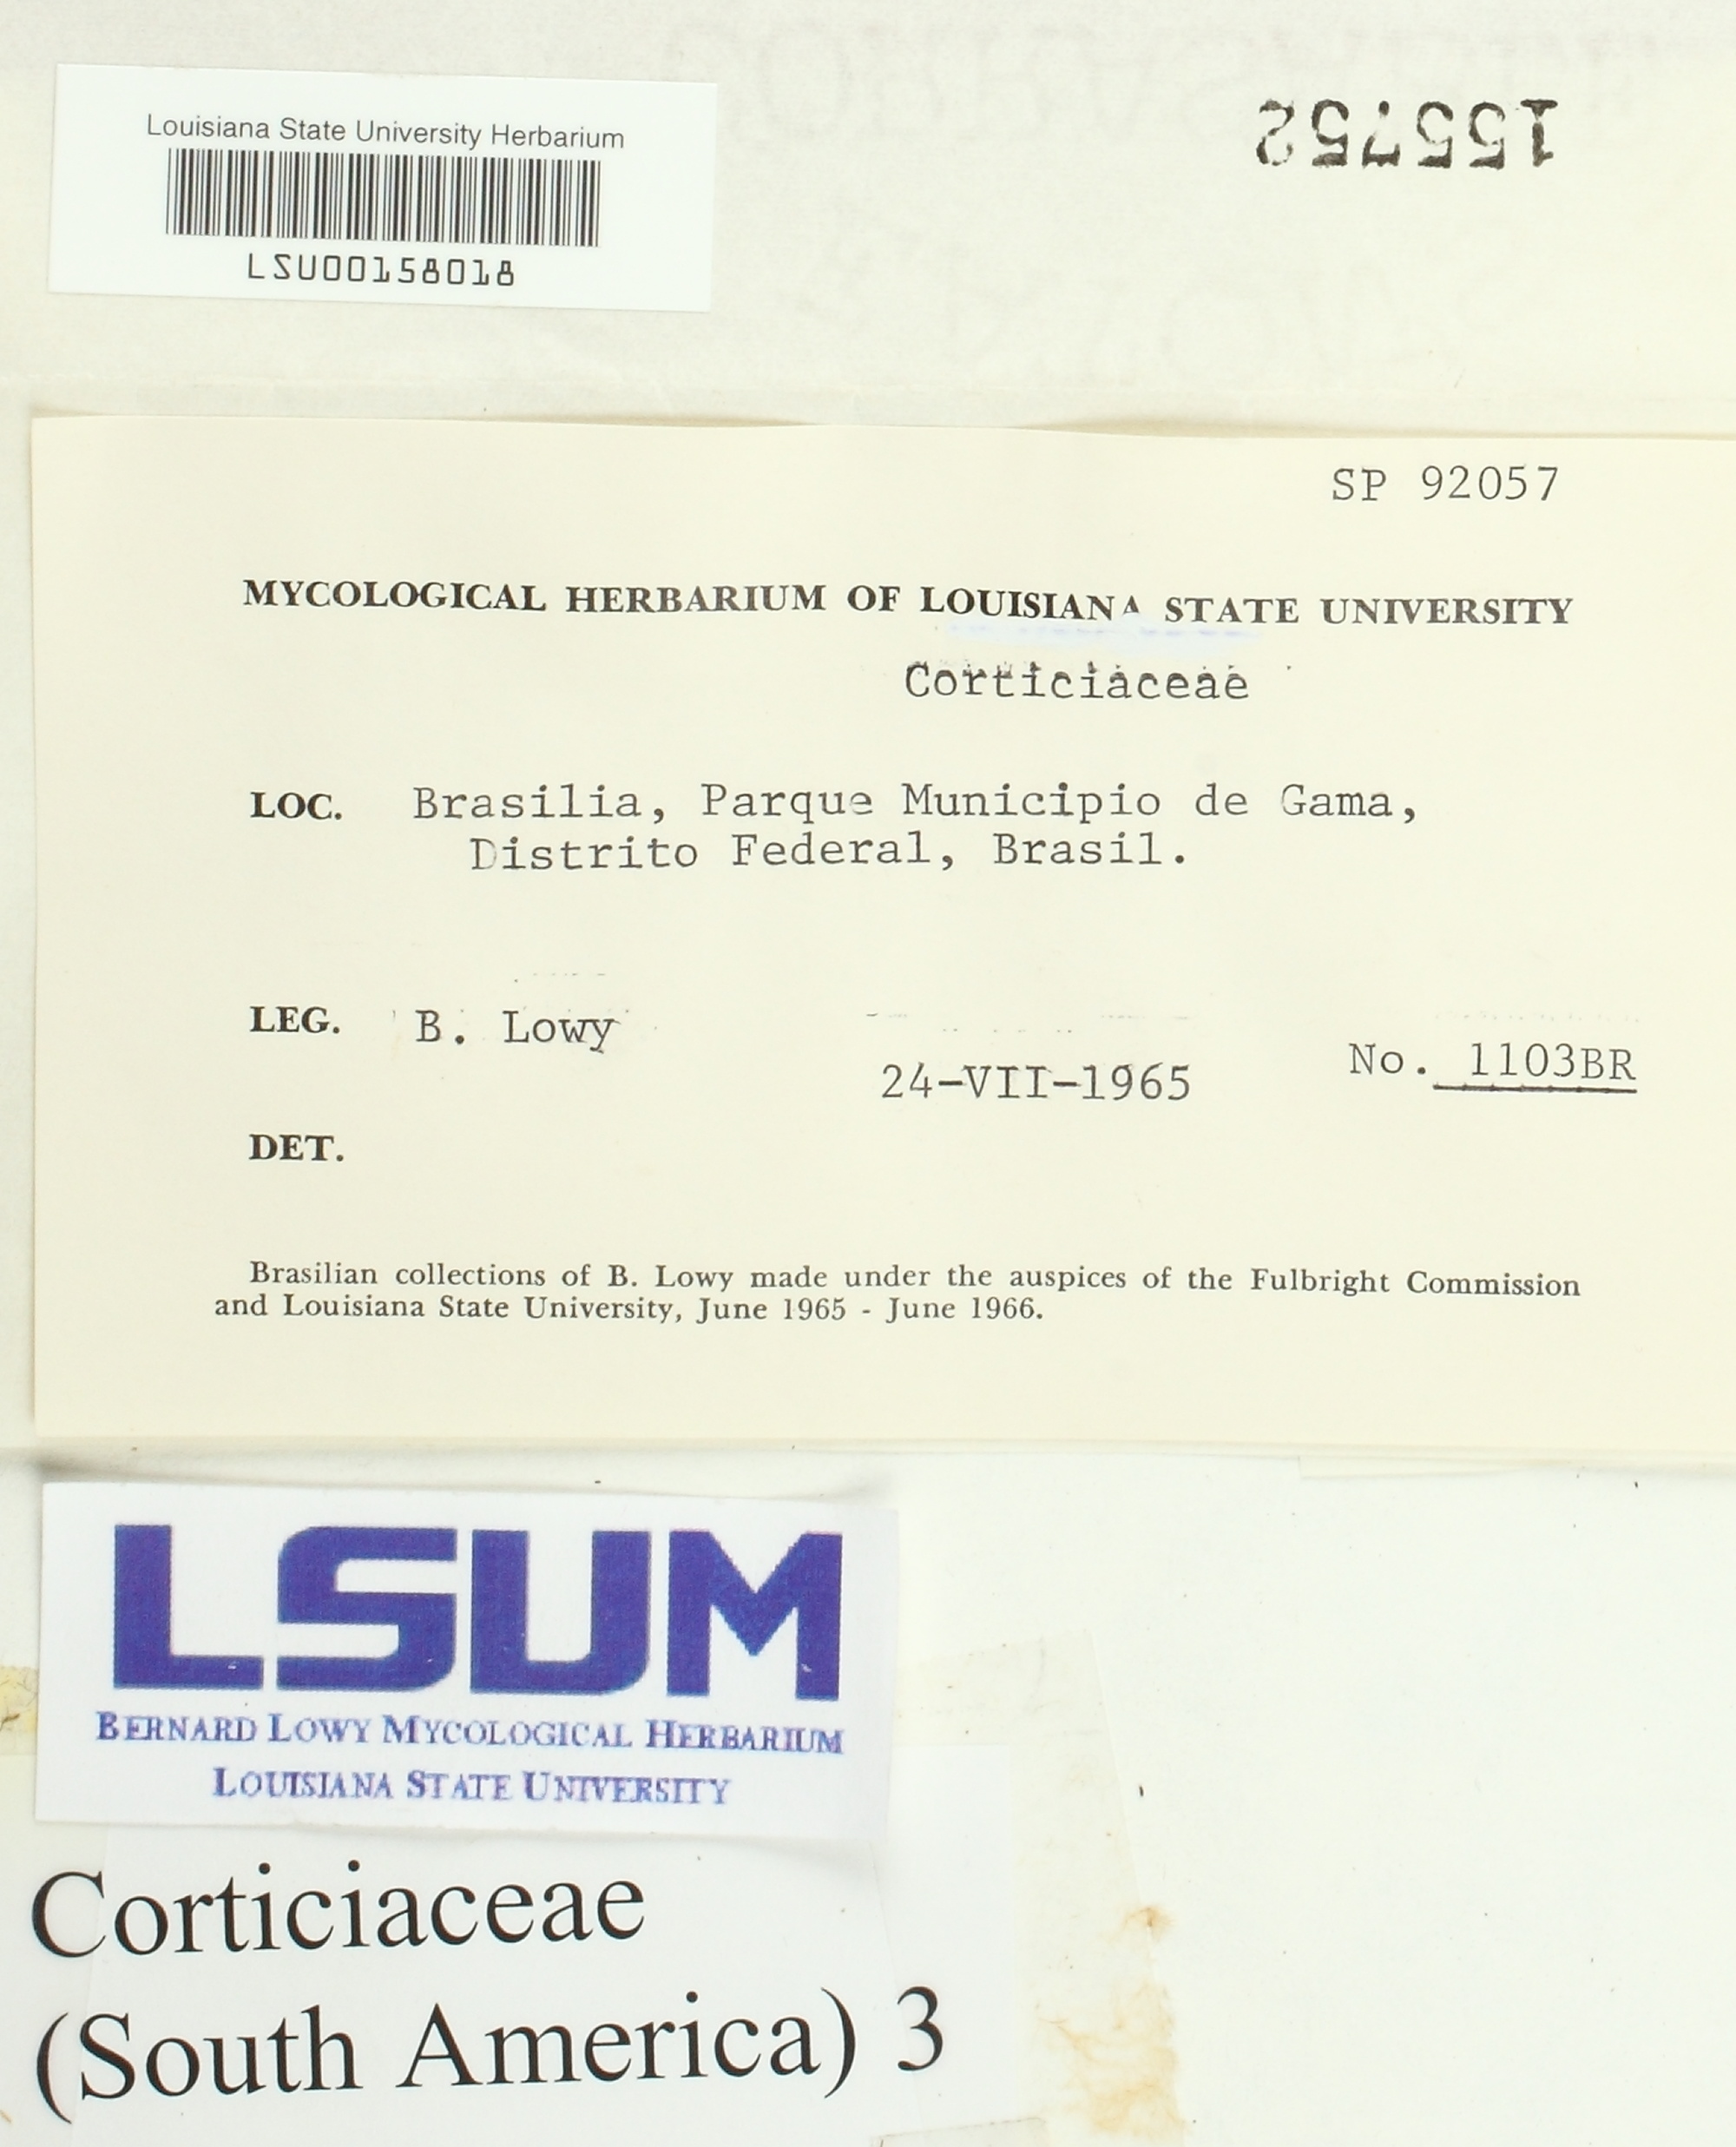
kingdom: Fungi
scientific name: Fungi
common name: Fungi
